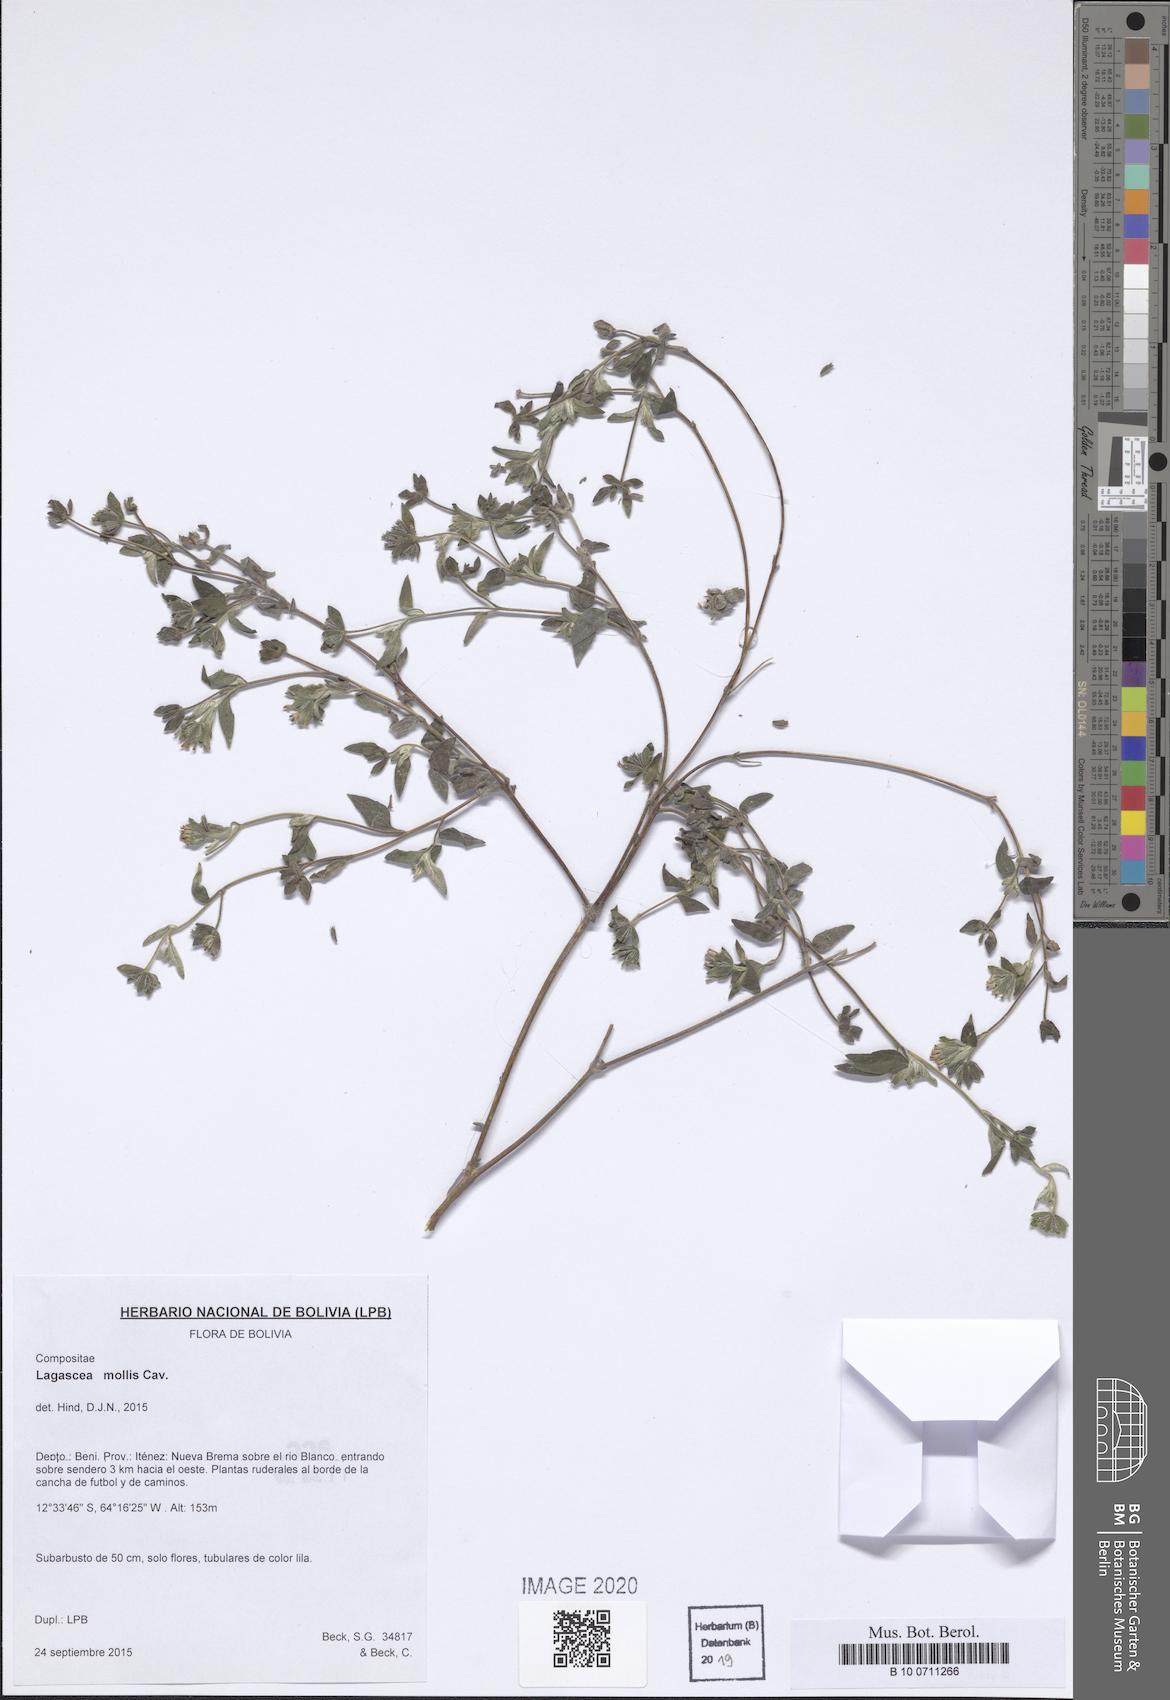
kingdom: Plantae
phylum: Tracheophyta
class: Magnoliopsida
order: Asterales
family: Asteraceae
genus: Lagascea
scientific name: Lagascea mollis
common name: Silkleaf
